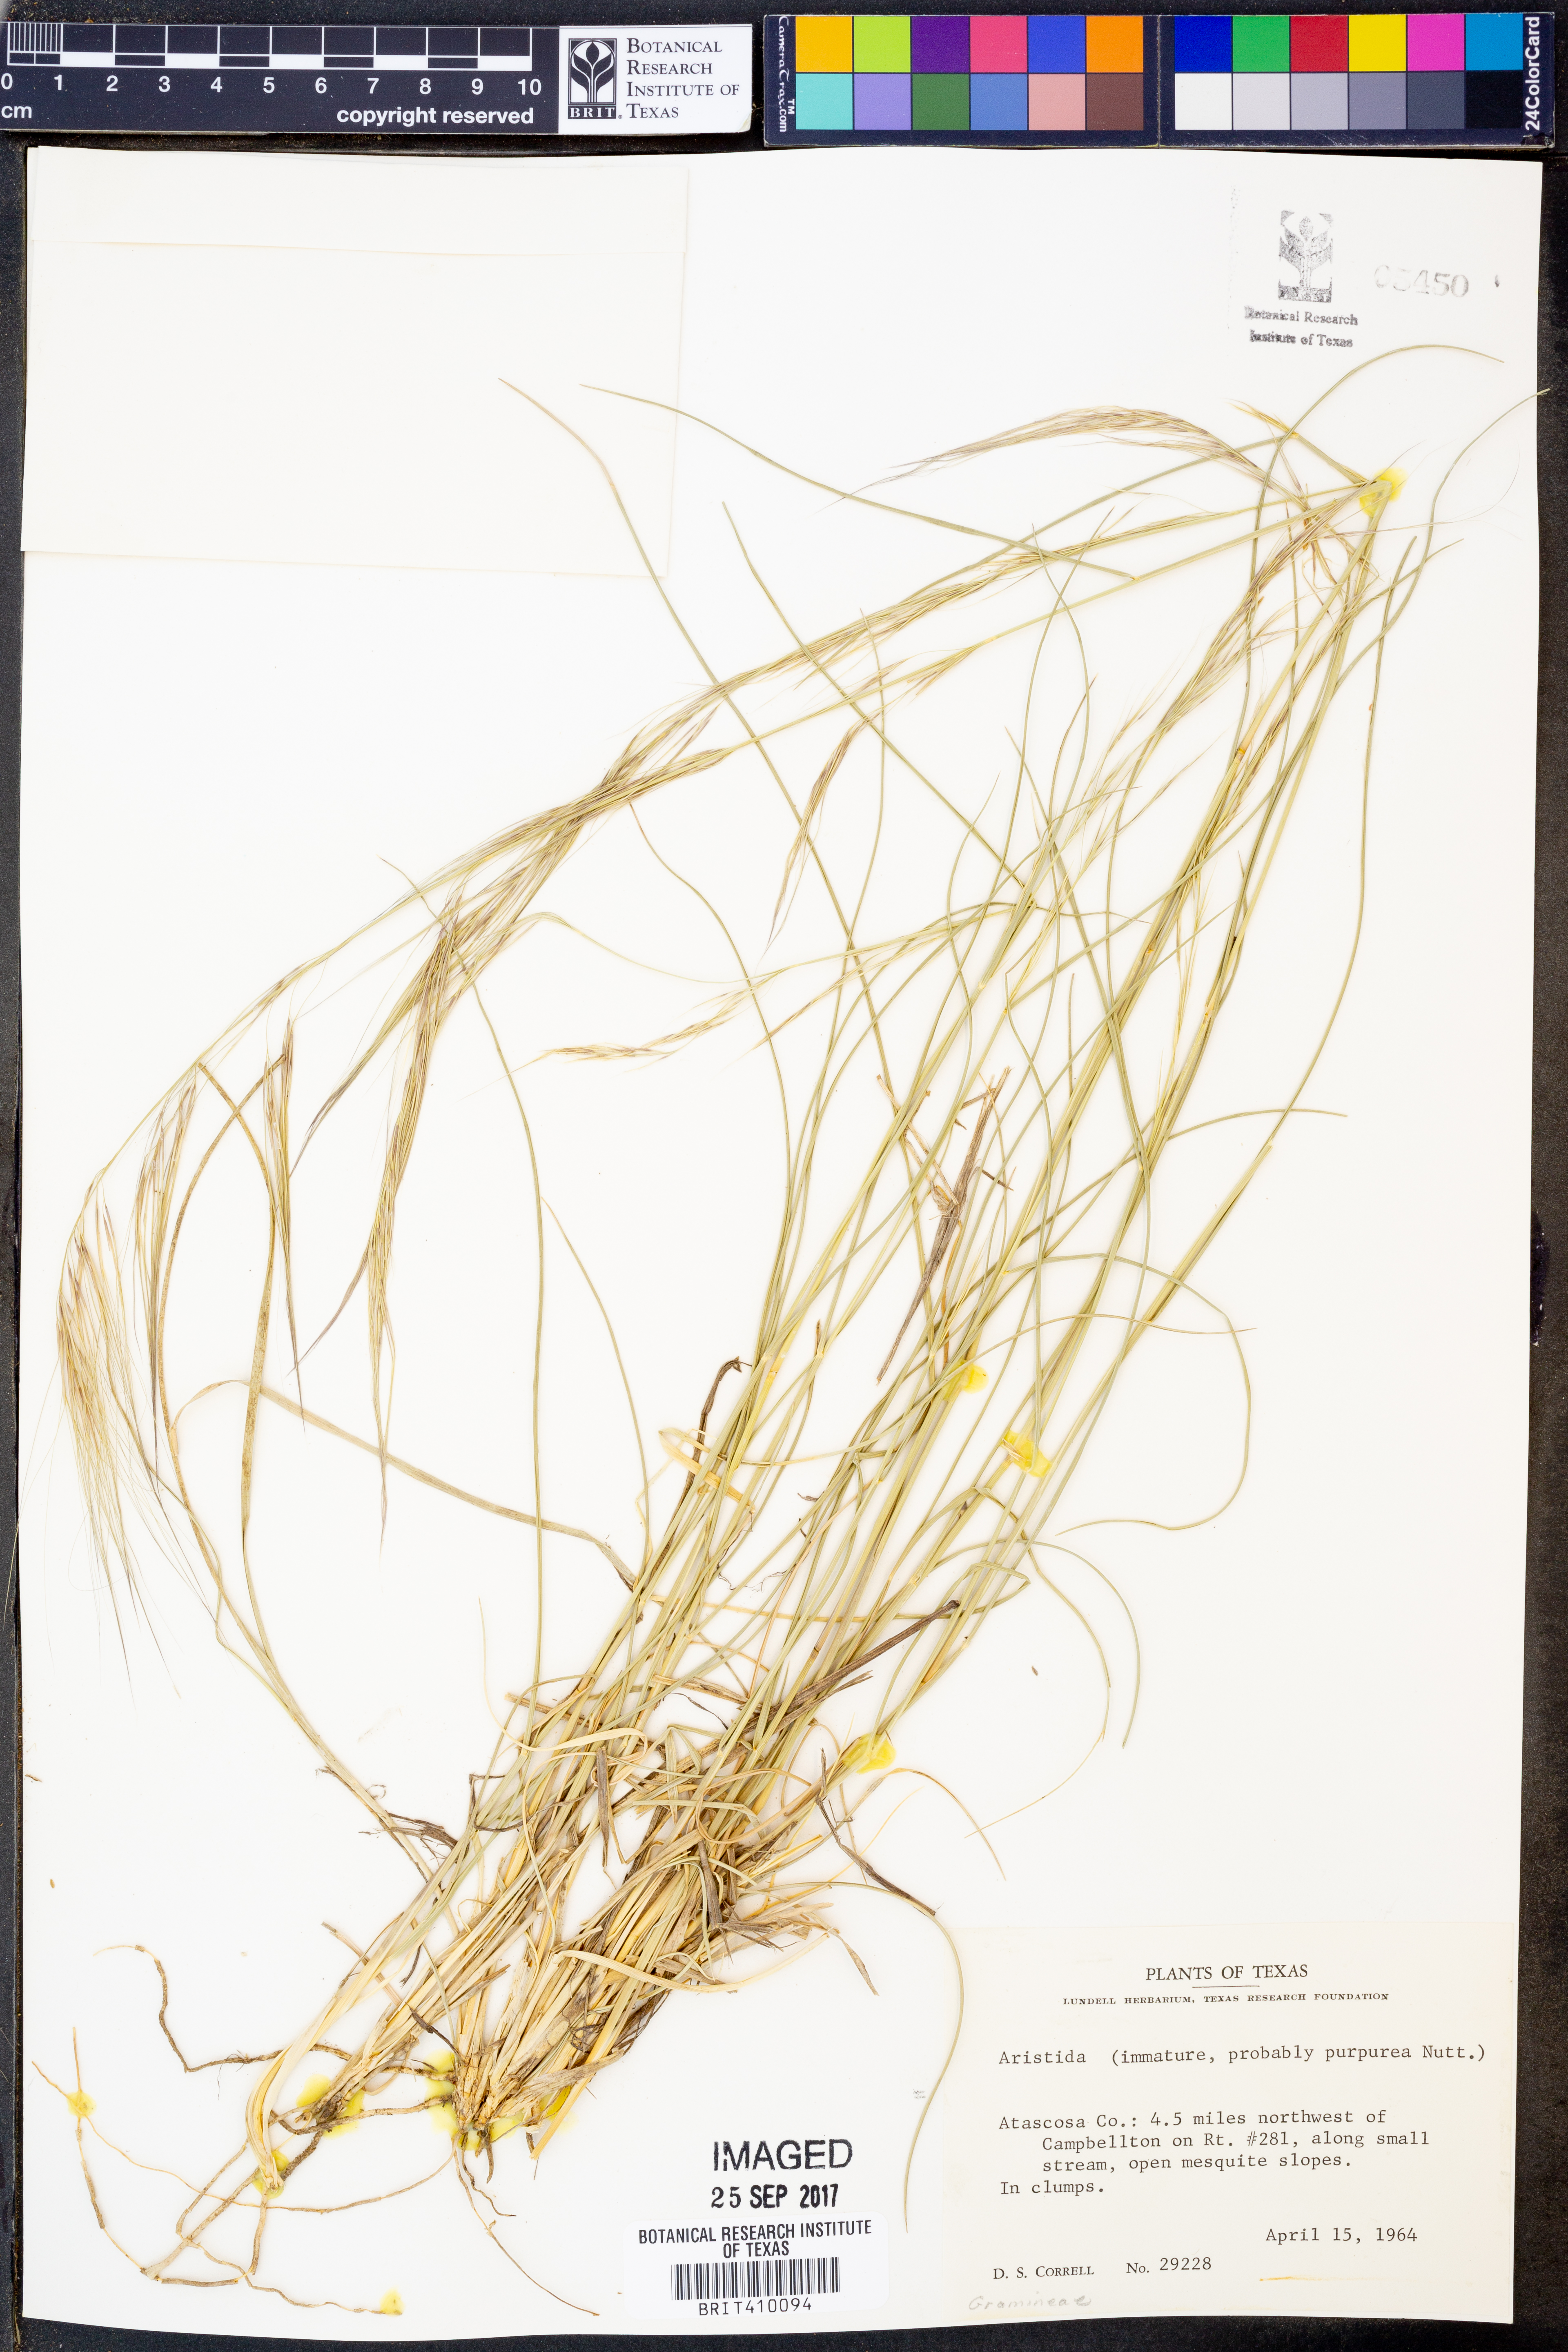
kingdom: Plantae
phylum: Tracheophyta
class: Liliopsida
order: Poales
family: Poaceae
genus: Aristida
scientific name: Aristida
